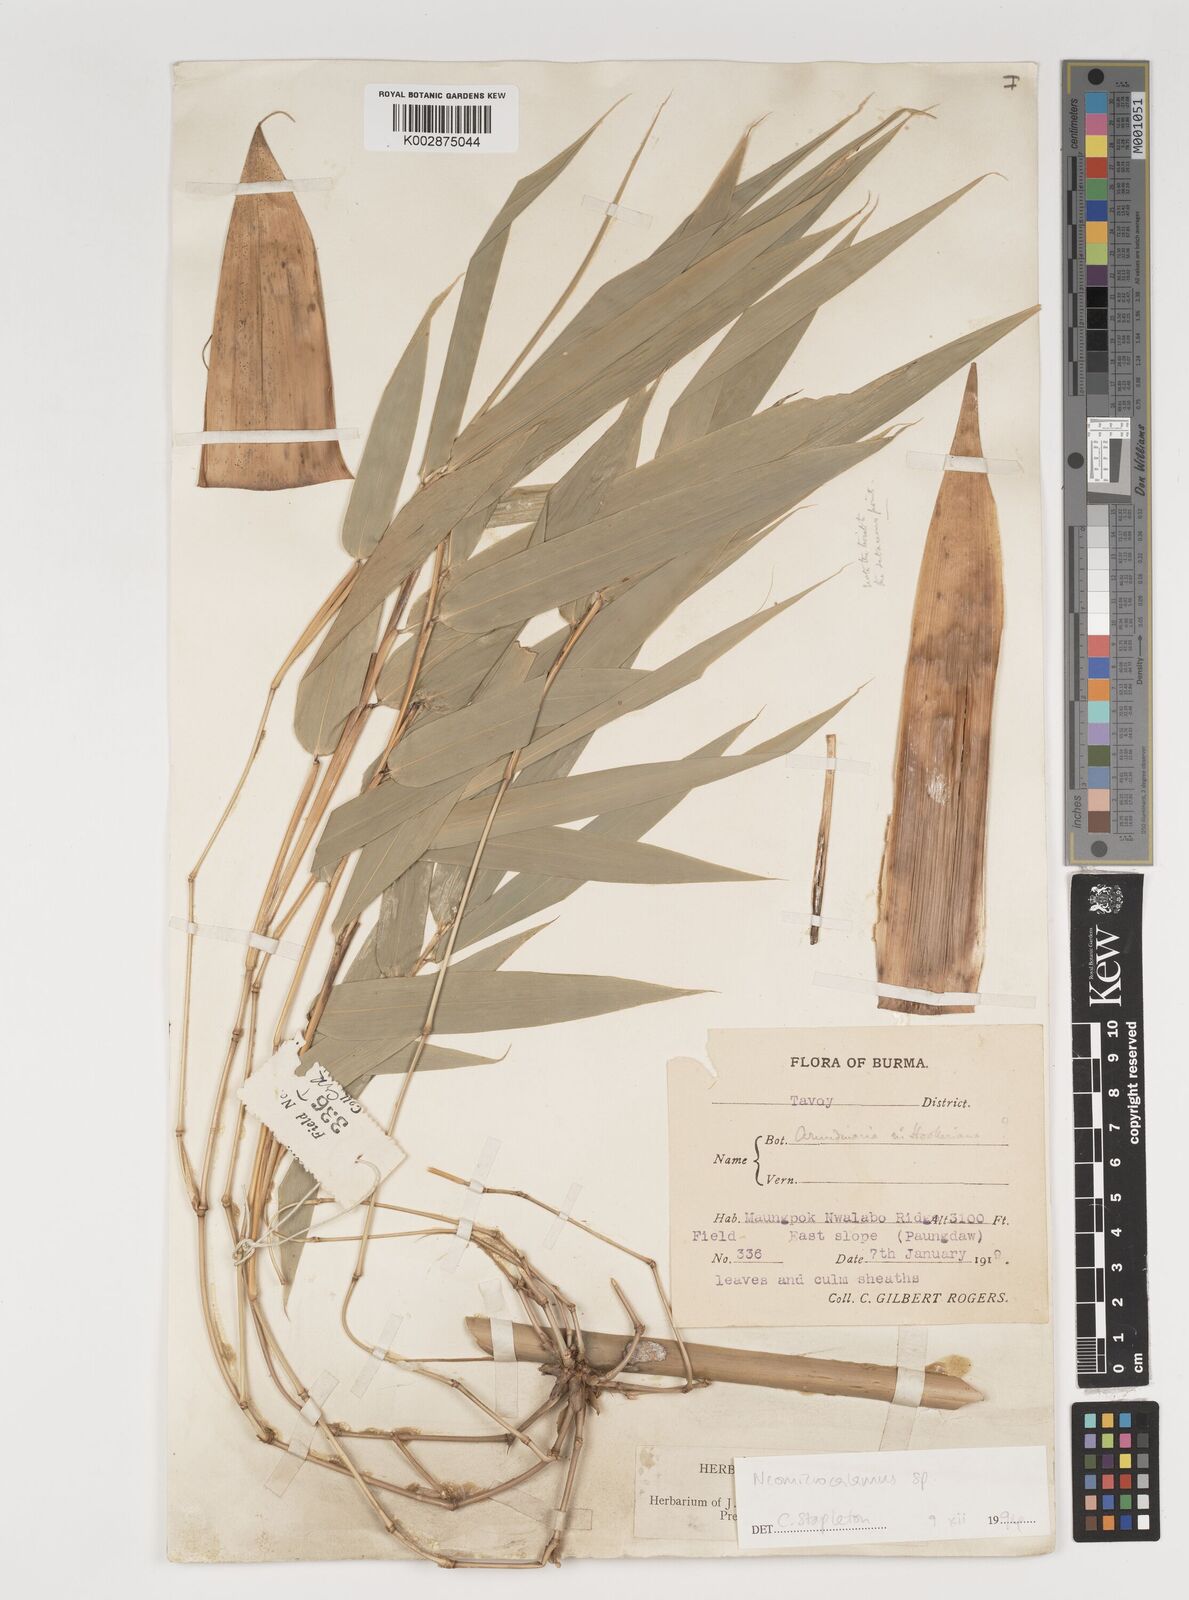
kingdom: Plantae
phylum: Tracheophyta
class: Liliopsida
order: Poales
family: Poaceae
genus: Neomicrocalamus
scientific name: Neomicrocalamus
